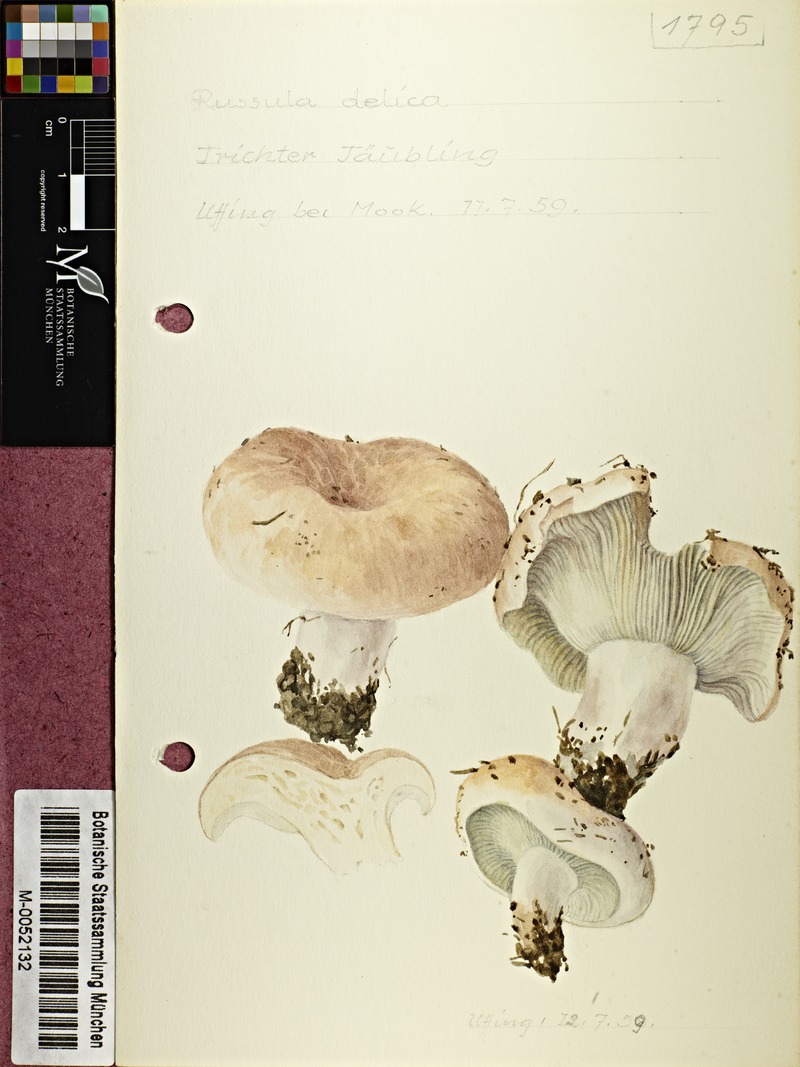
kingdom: Fungi
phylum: Basidiomycota
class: Agaricomycetes
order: Russulales
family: Russulaceae
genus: Russula
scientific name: Russula delica
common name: Milk white brittlegill
